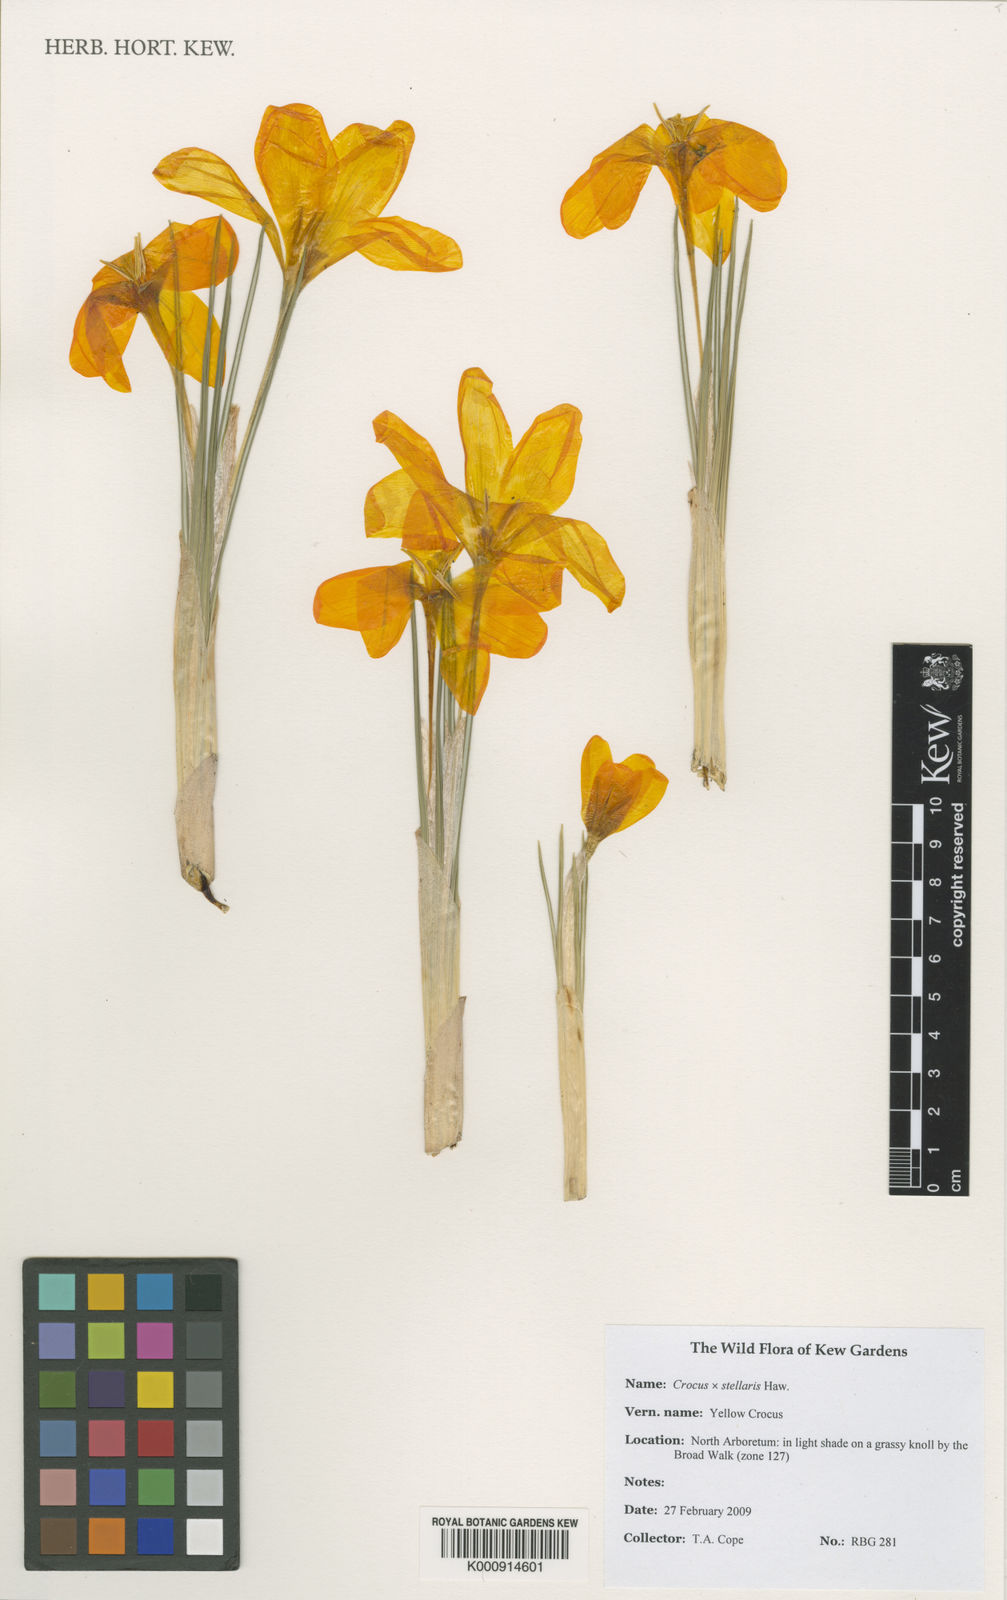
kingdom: Plantae
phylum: Tracheophyta
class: Liliopsida
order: Asparagales
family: Iridaceae
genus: Crocus
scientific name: Crocus luteus
